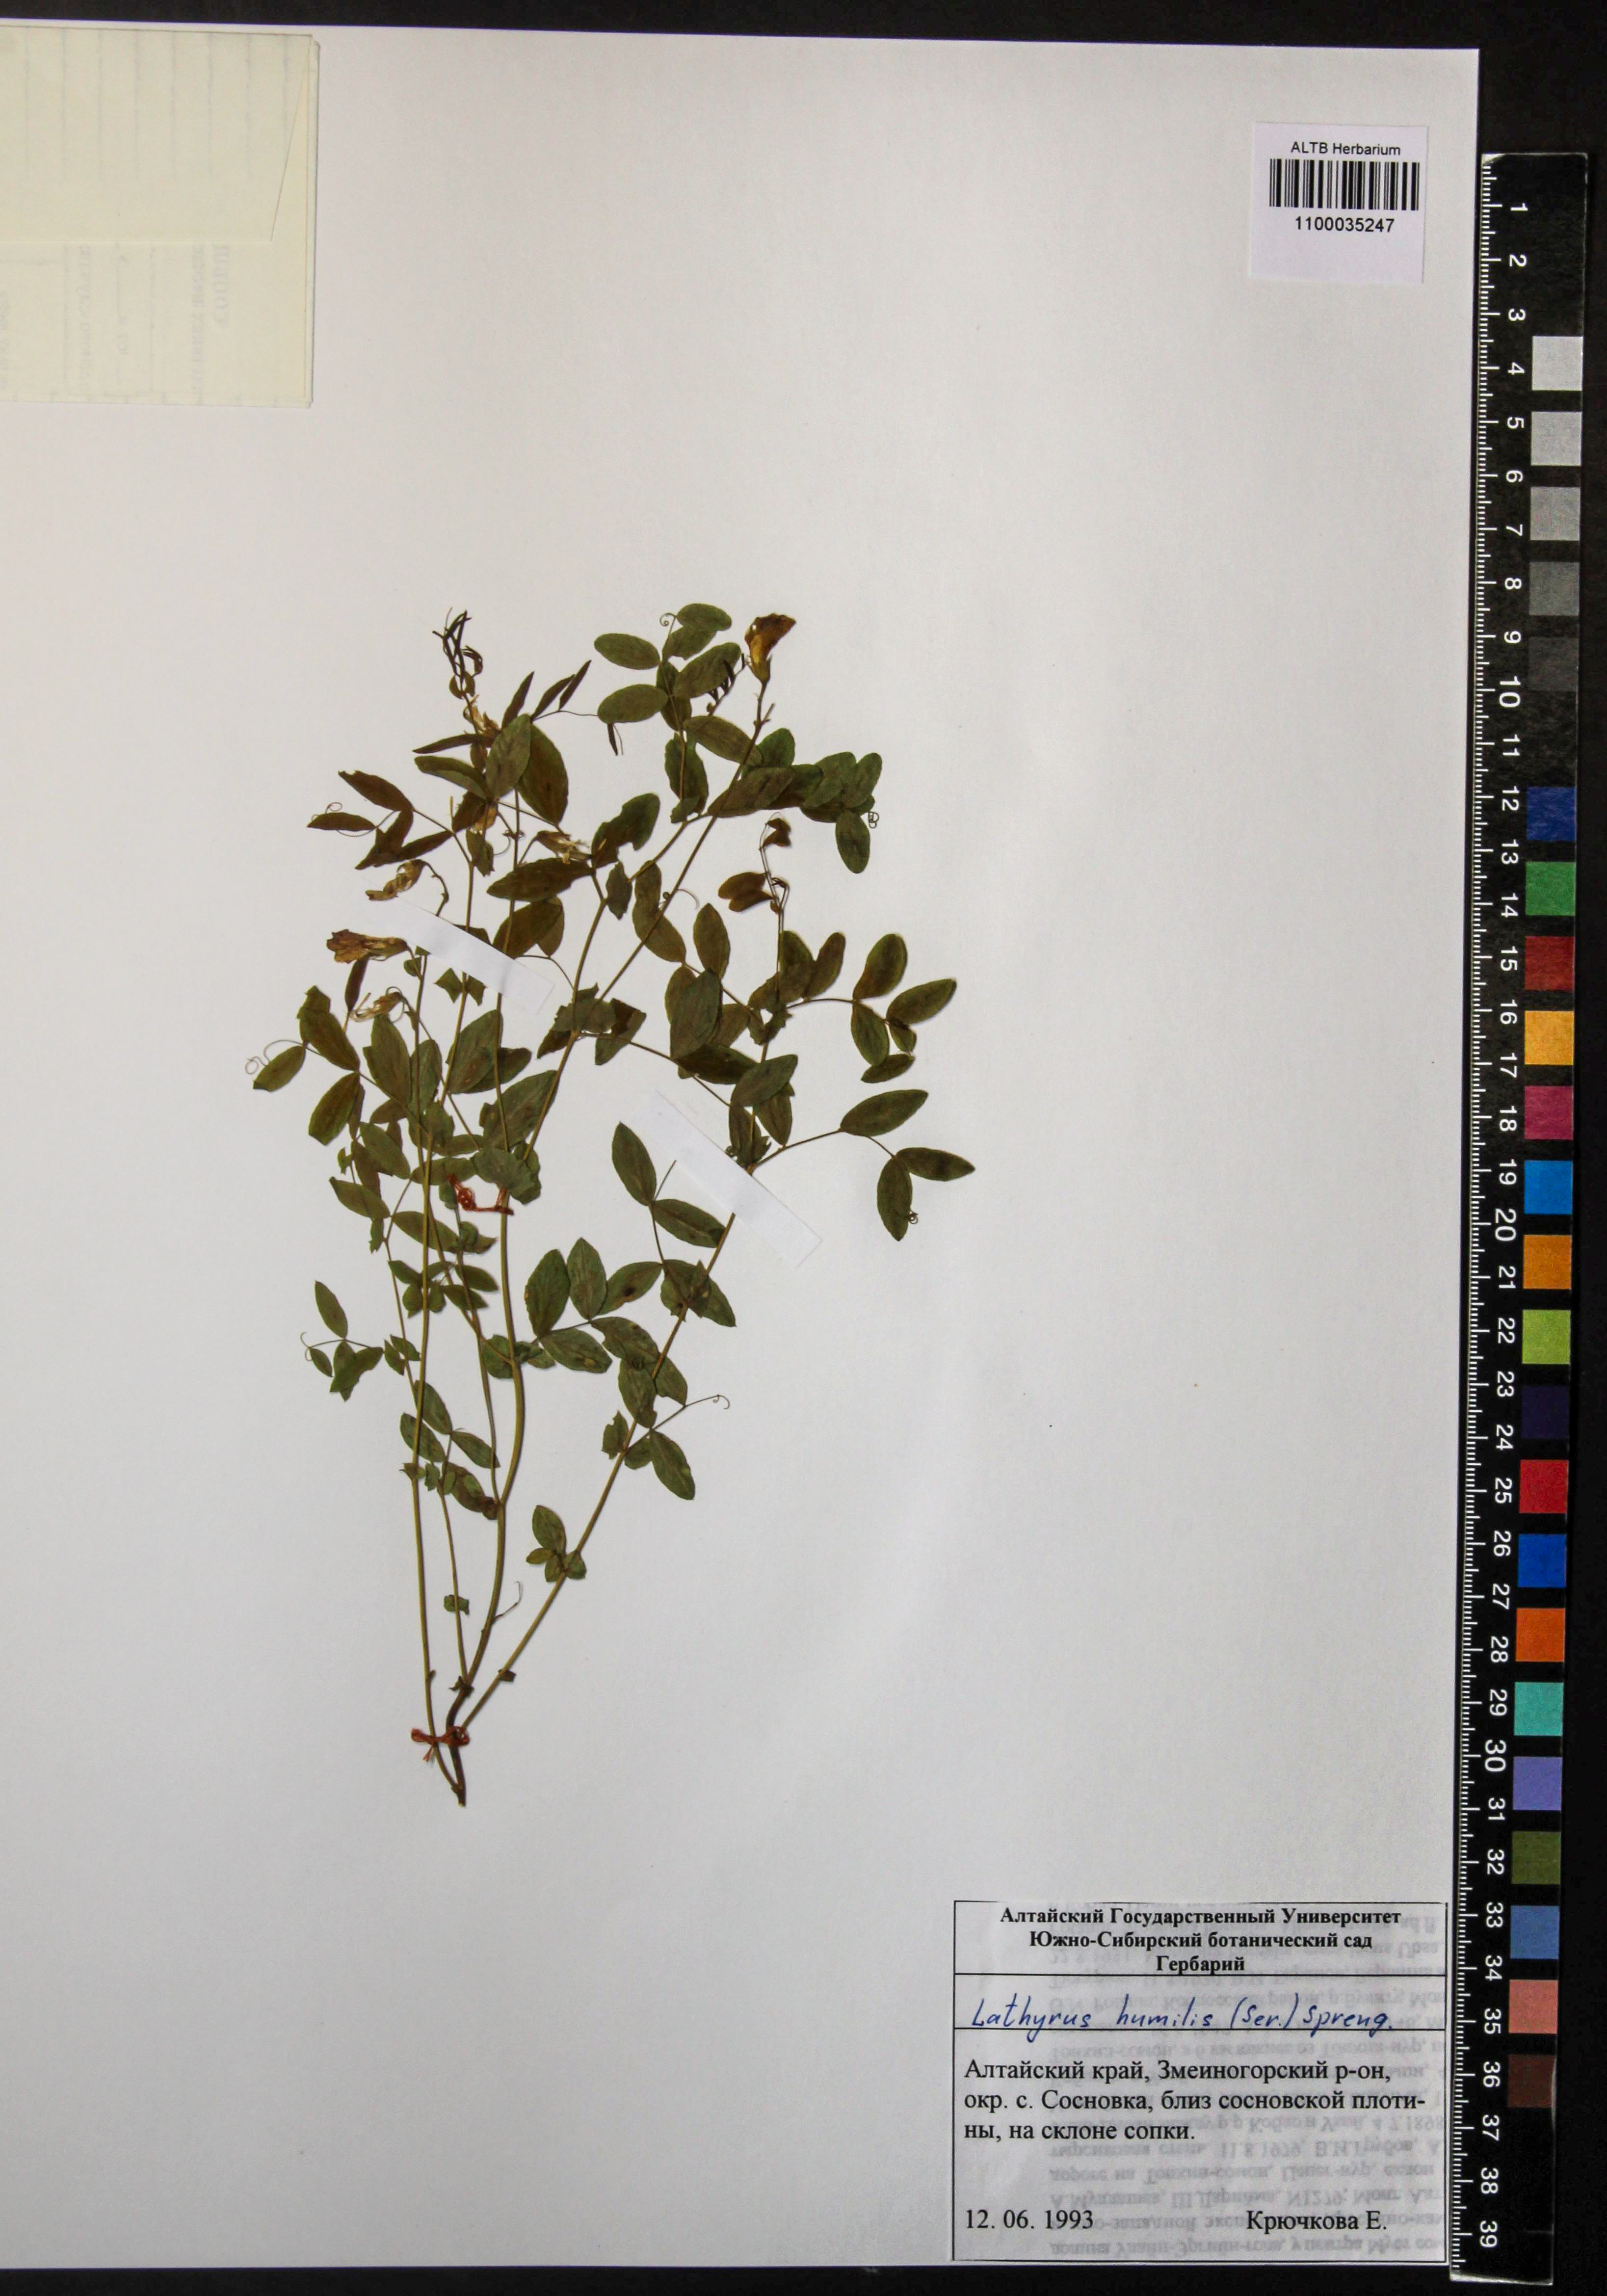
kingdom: Plantae
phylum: Tracheophyta
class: Magnoliopsida
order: Fabales
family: Fabaceae
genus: Lathyrus
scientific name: Lathyrus humilis
